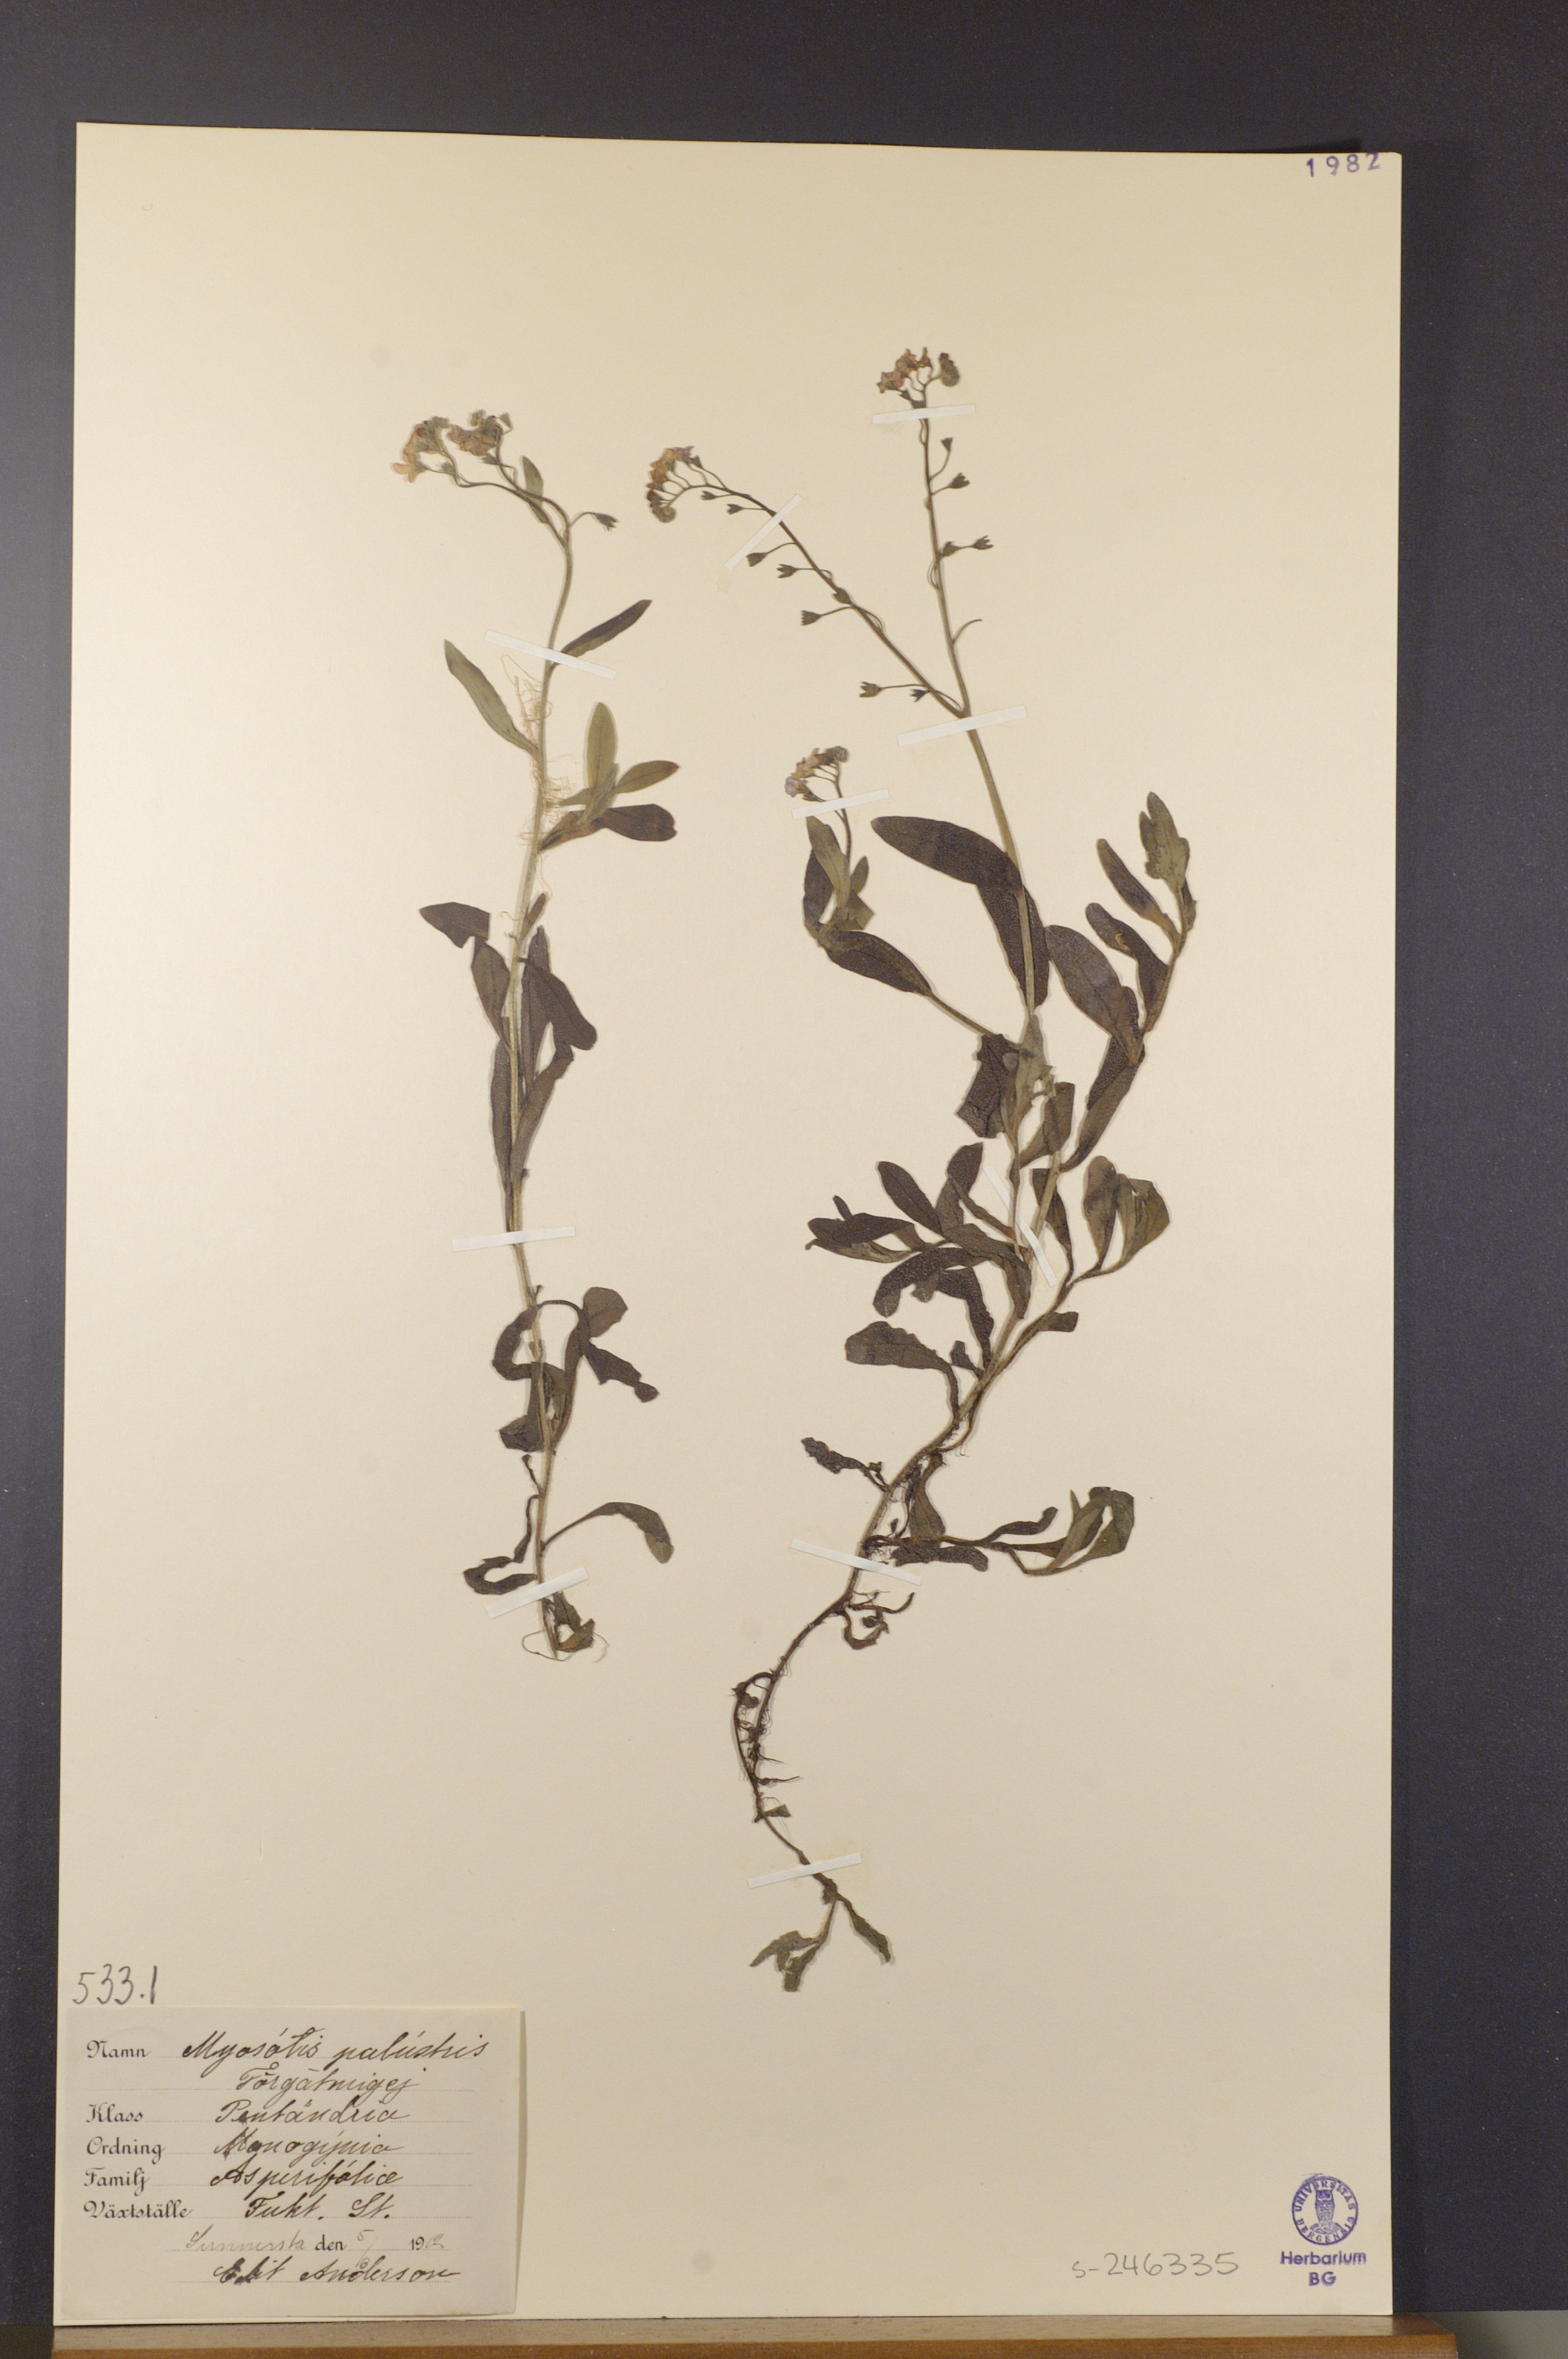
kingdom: Plantae
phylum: Tracheophyta
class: Magnoliopsida
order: Boraginales
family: Boraginaceae
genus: Myosotis
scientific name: Myosotis scorpioides
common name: Water forget-me-not
